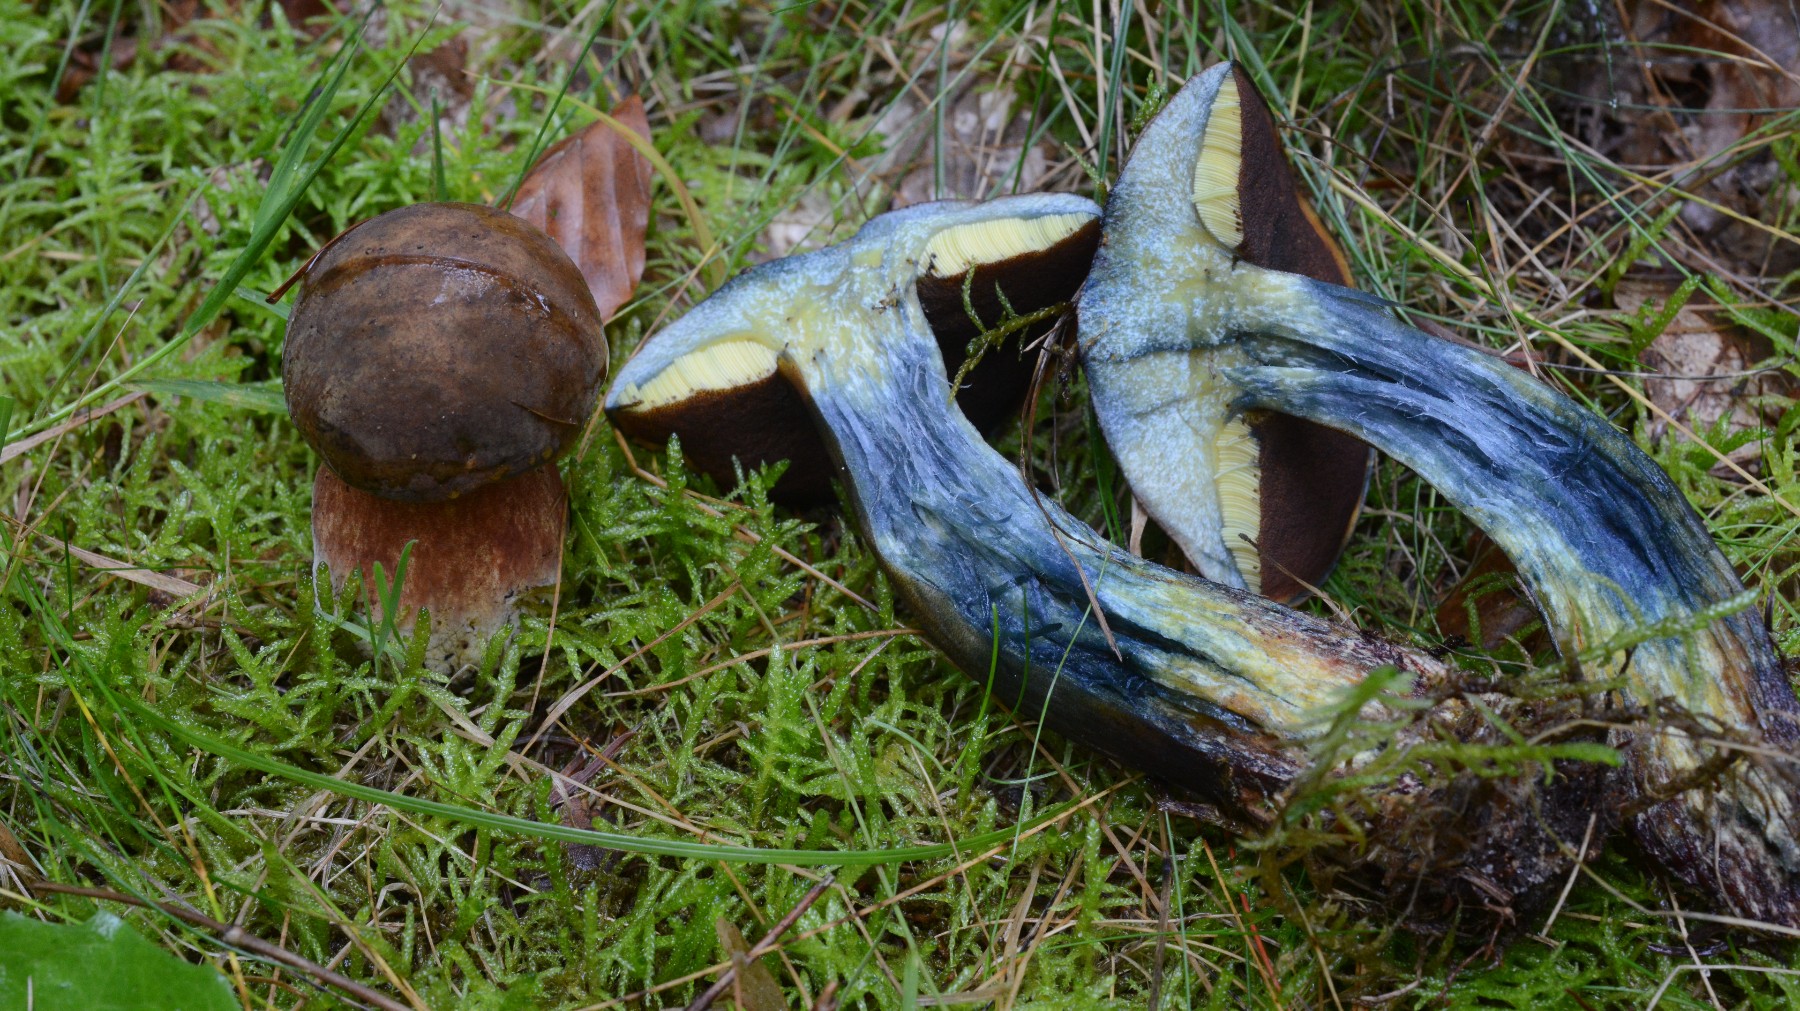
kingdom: Fungi
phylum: Basidiomycota
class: Agaricomycetes
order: Boletales
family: Boletaceae
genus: Neoboletus
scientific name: Neoboletus erythropus
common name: punktstokket indigorørhat
